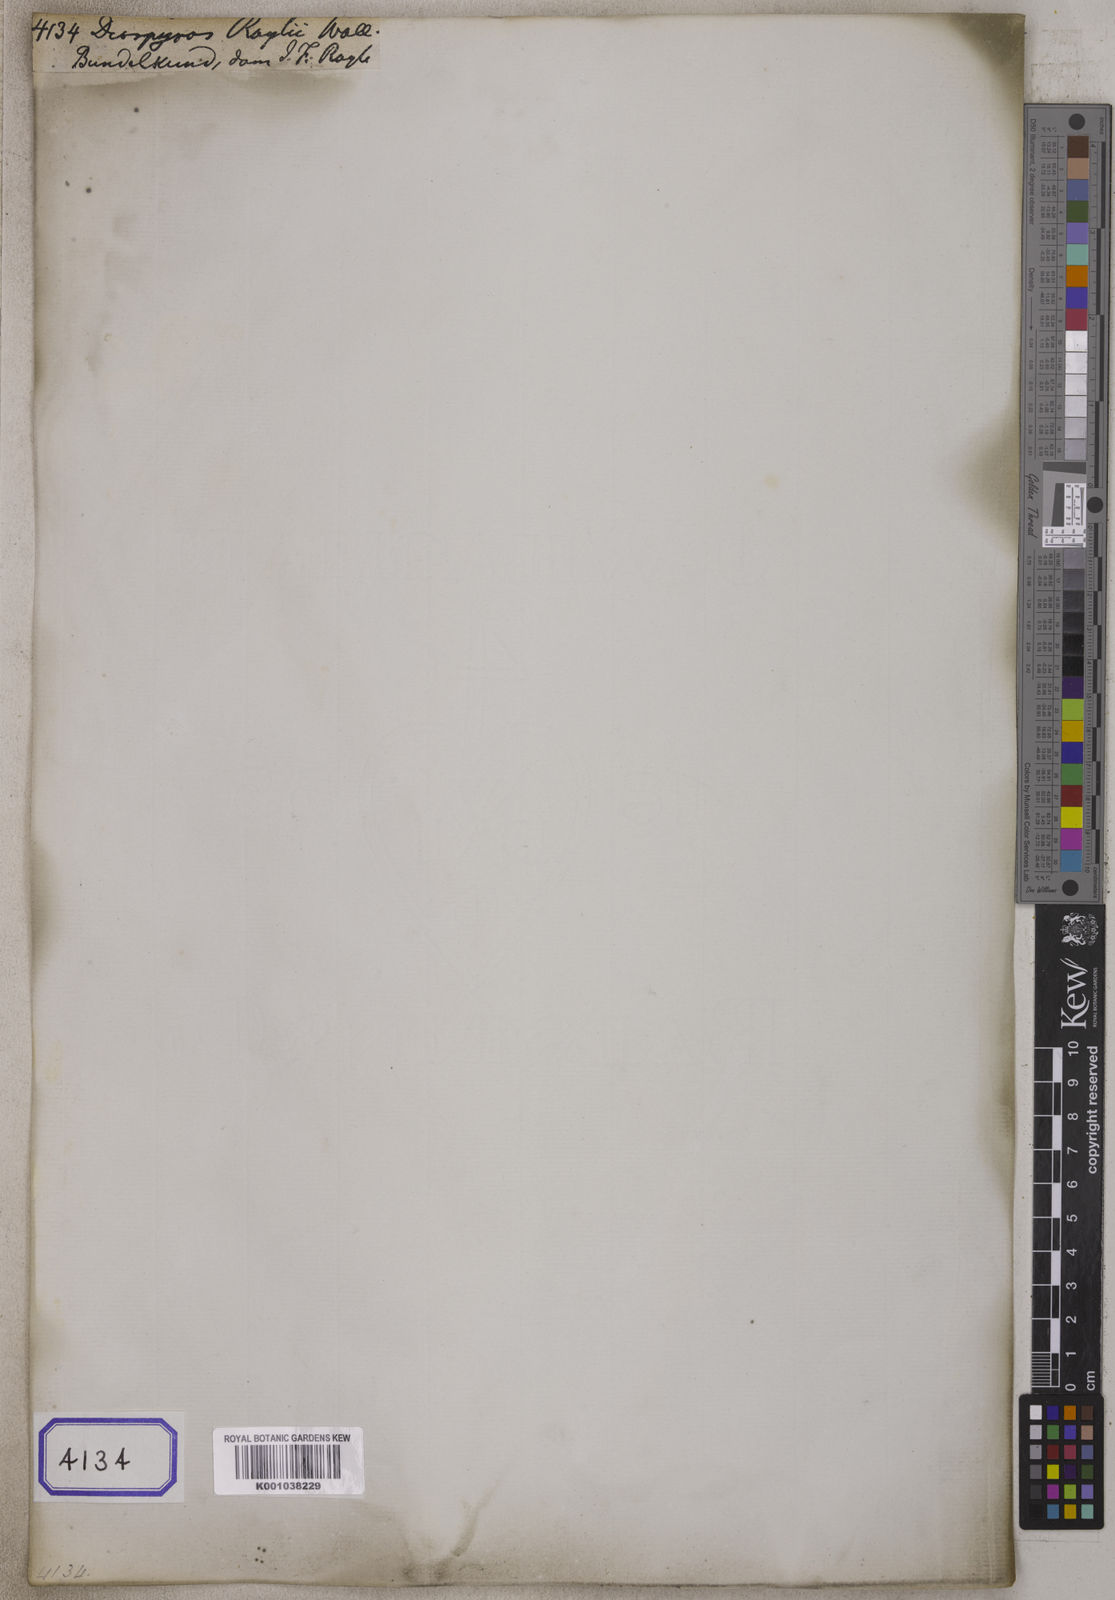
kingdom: Plantae
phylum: Tracheophyta
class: Magnoliopsida
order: Ericales
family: Ebenaceae
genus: Diospyros
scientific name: Diospyros
